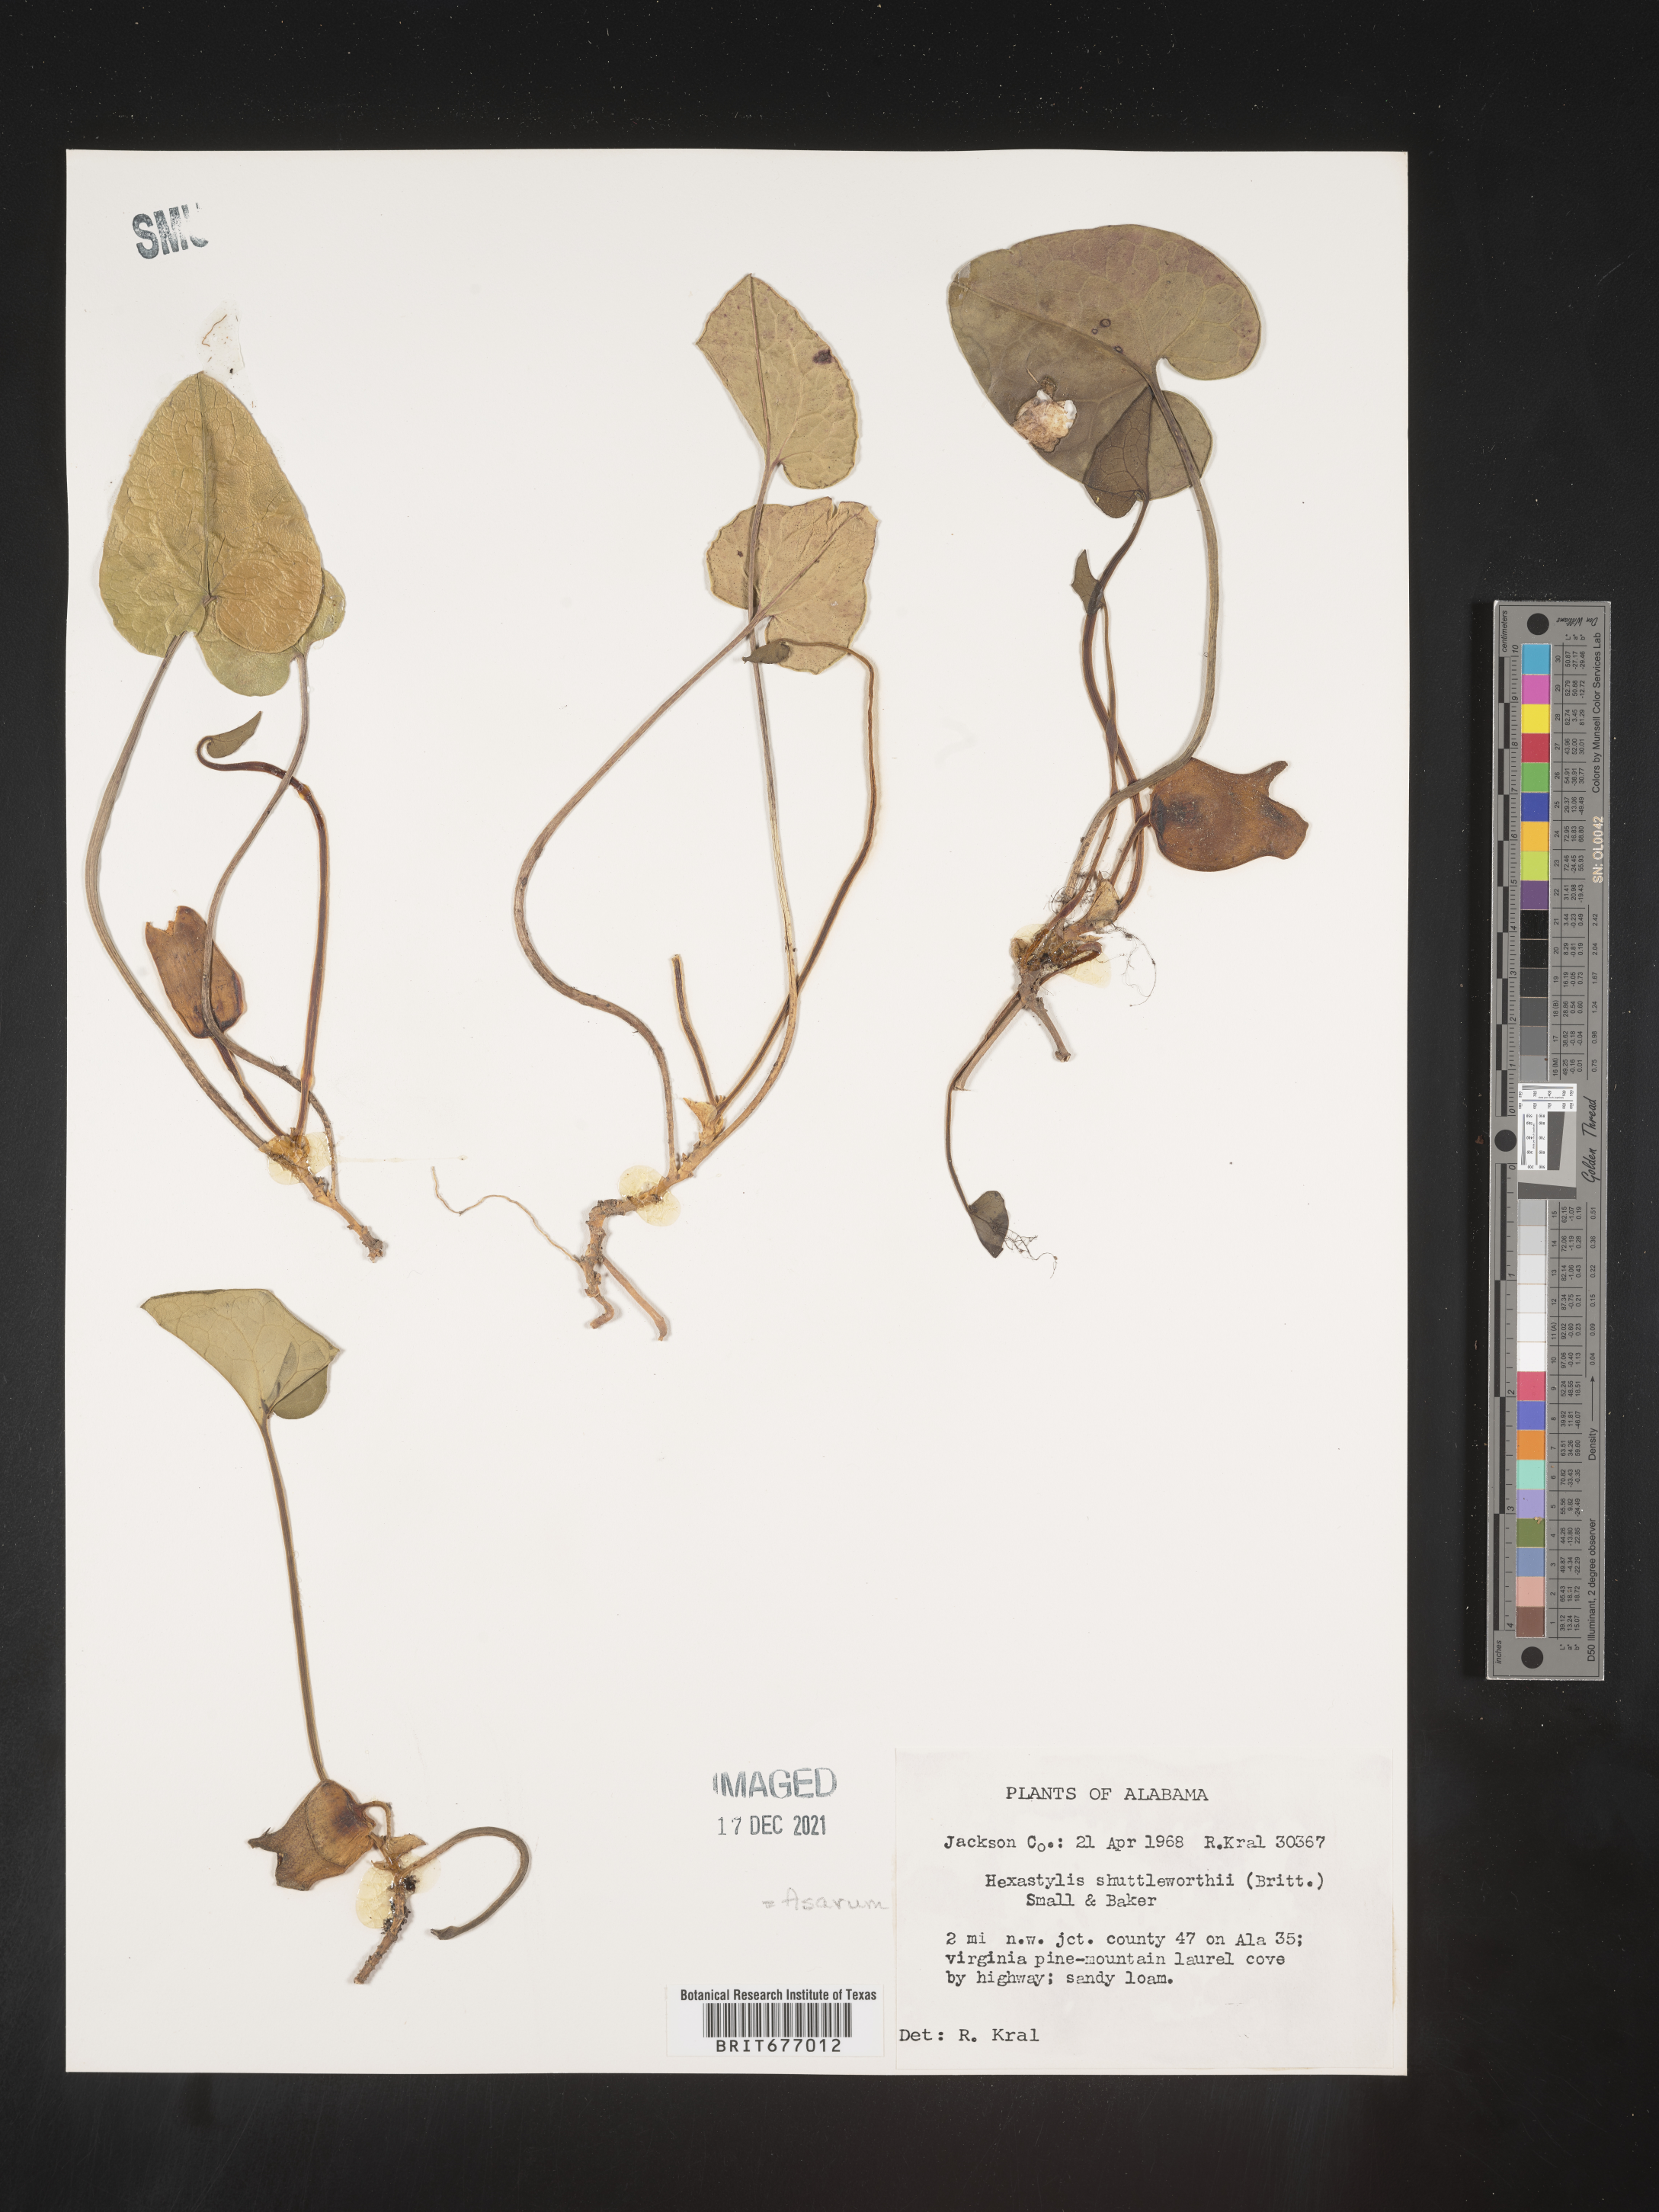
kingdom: Plantae
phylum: Tracheophyta
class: Magnoliopsida
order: Piperales
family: Aristolochiaceae
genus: Asarum
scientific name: Asarum
